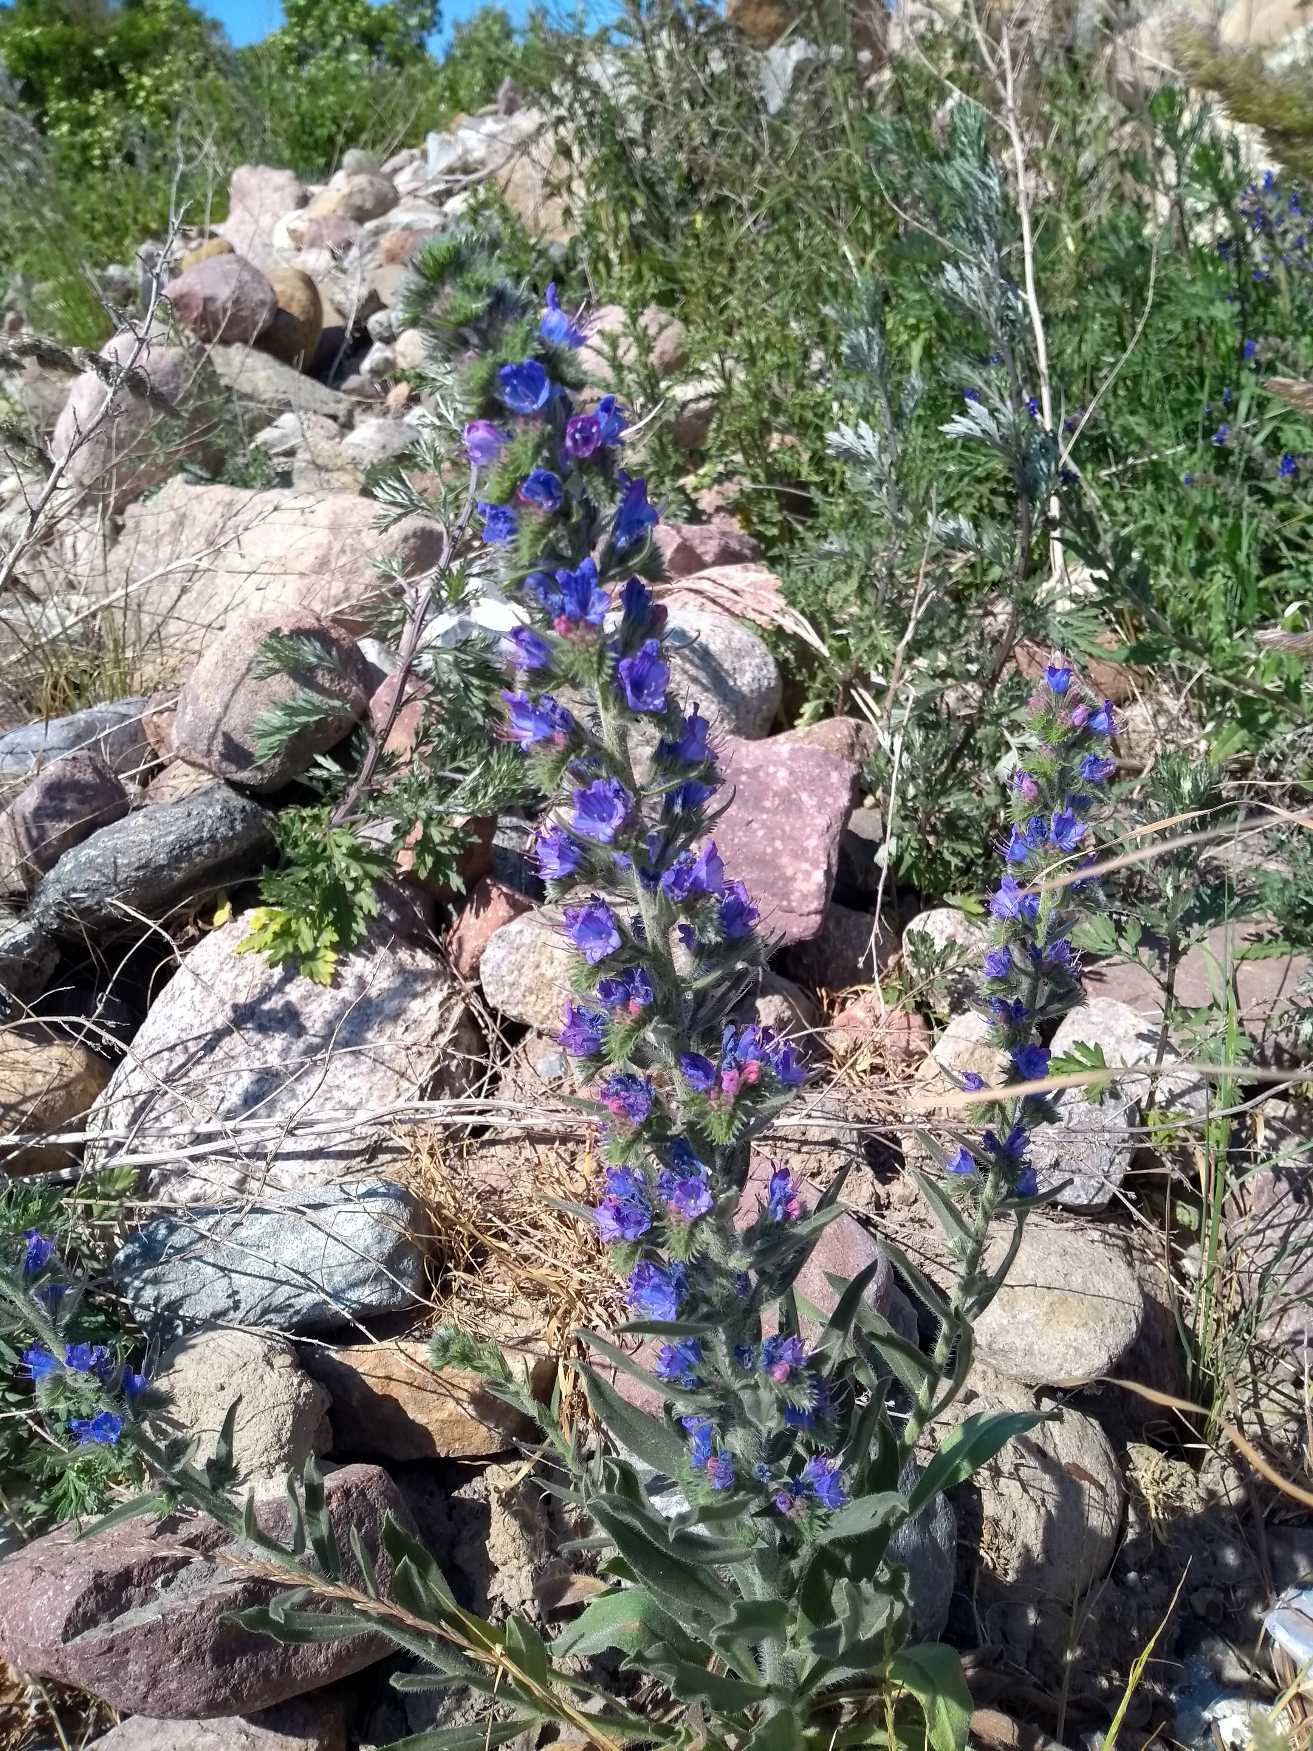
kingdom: Plantae
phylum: Tracheophyta
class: Magnoliopsida
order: Boraginales
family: Boraginaceae
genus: Echium
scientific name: Echium vulgare
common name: Slangehoved
